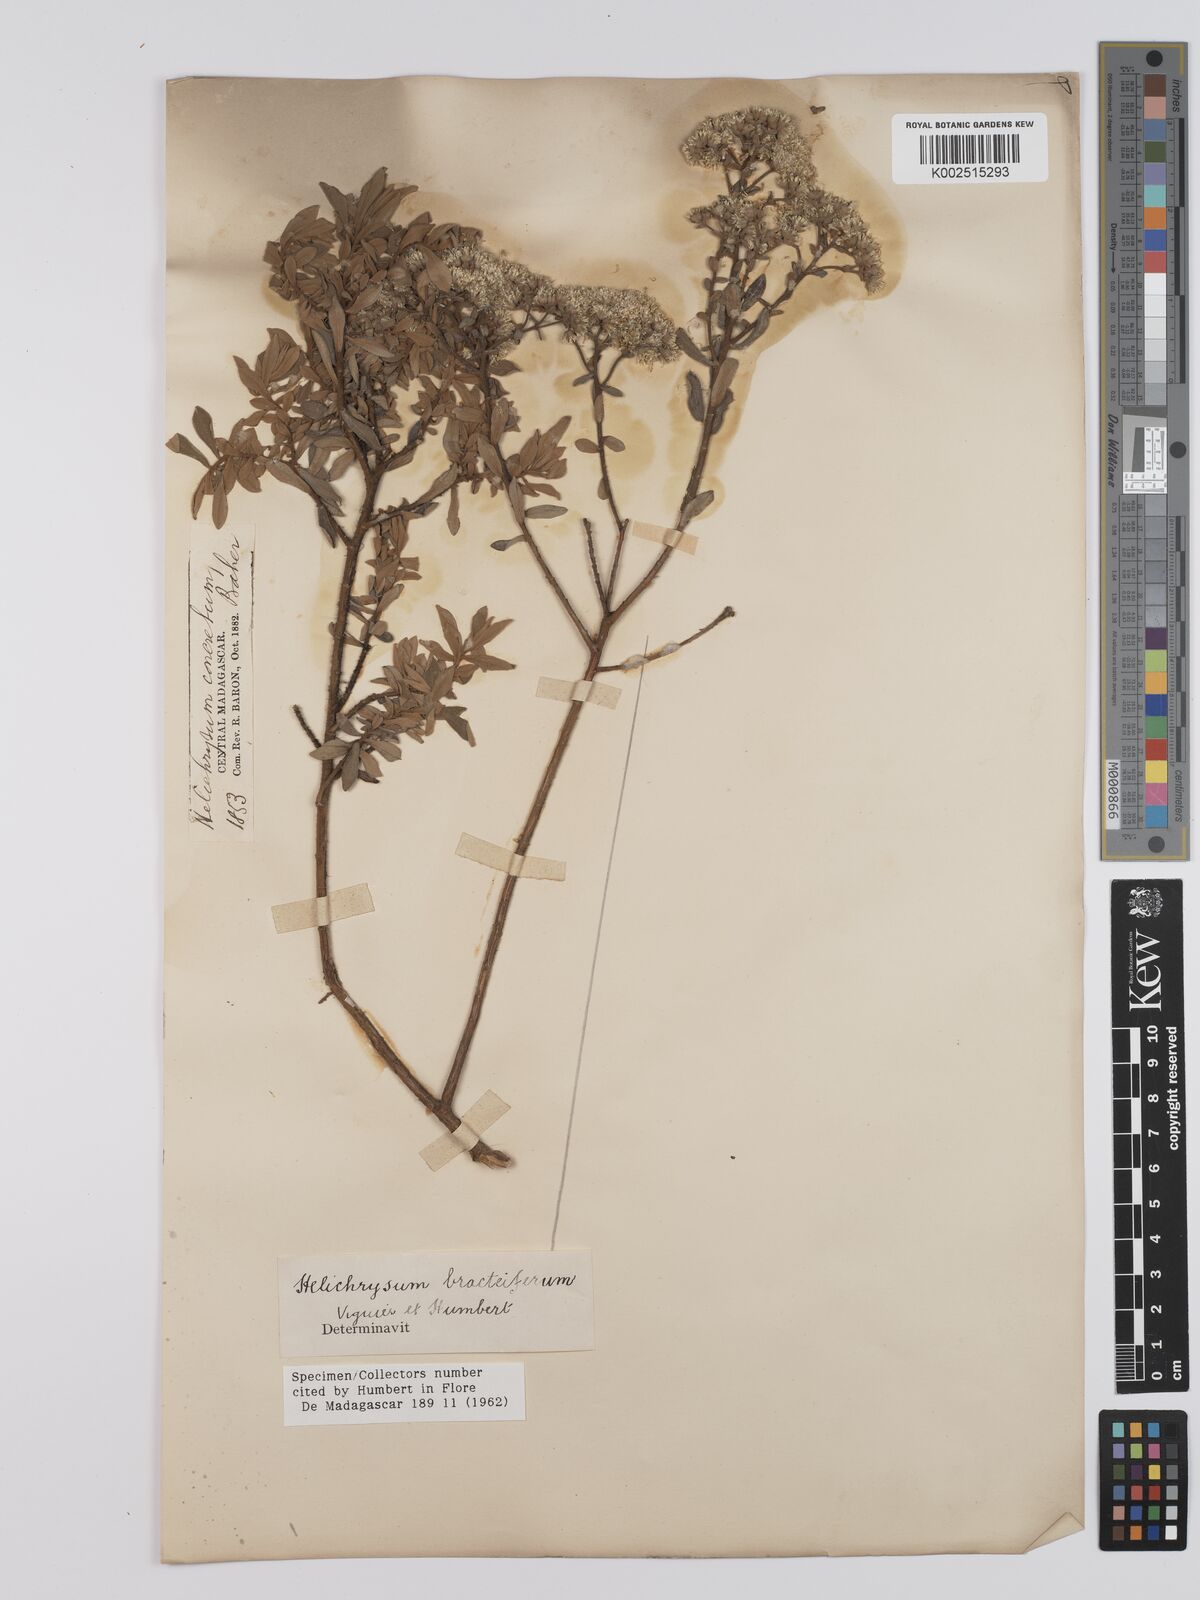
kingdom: Plantae
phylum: Tracheophyta
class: Magnoliopsida
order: Asterales
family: Asteraceae
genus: Helichrysum
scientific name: Helichrysum bracteiferum
